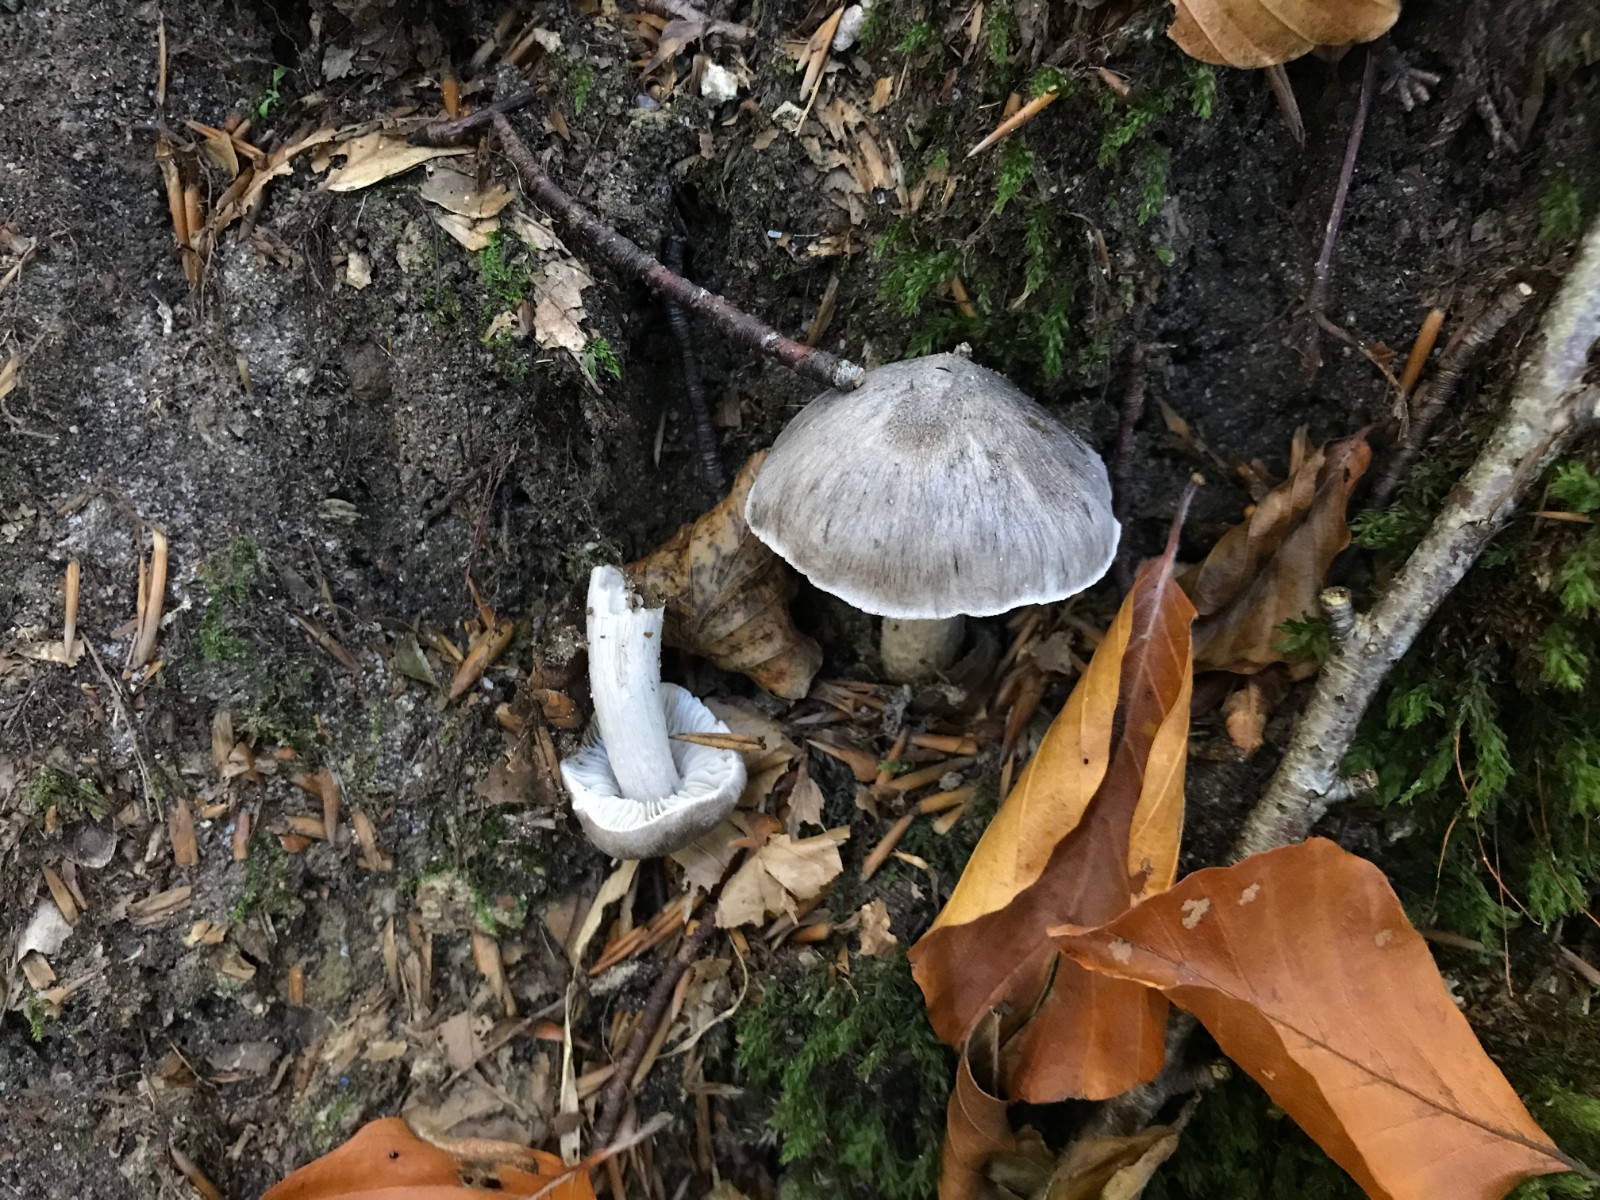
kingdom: Fungi
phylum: Basidiomycota
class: Agaricomycetes
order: Agaricales
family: Tricholomataceae
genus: Tricholoma
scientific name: Tricholoma sciodes
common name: stribet ridderhat
